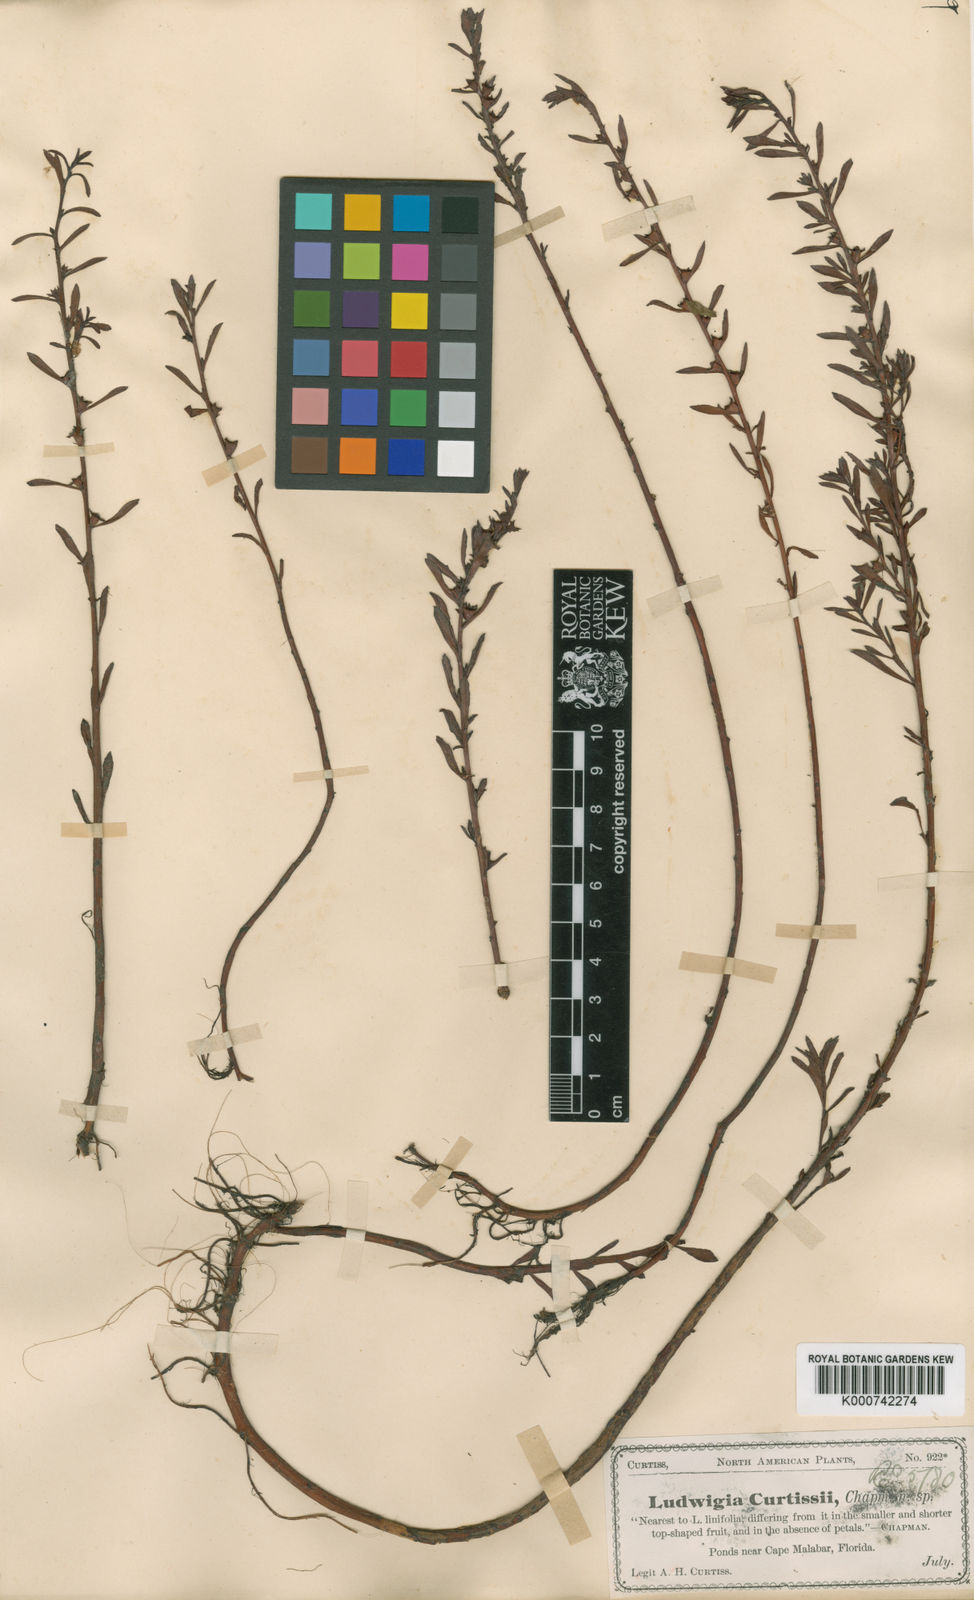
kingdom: Plantae
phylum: Tracheophyta
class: Magnoliopsida
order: Myrtales
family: Onagraceae
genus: Ludwigia
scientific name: Ludwigia curtissii
